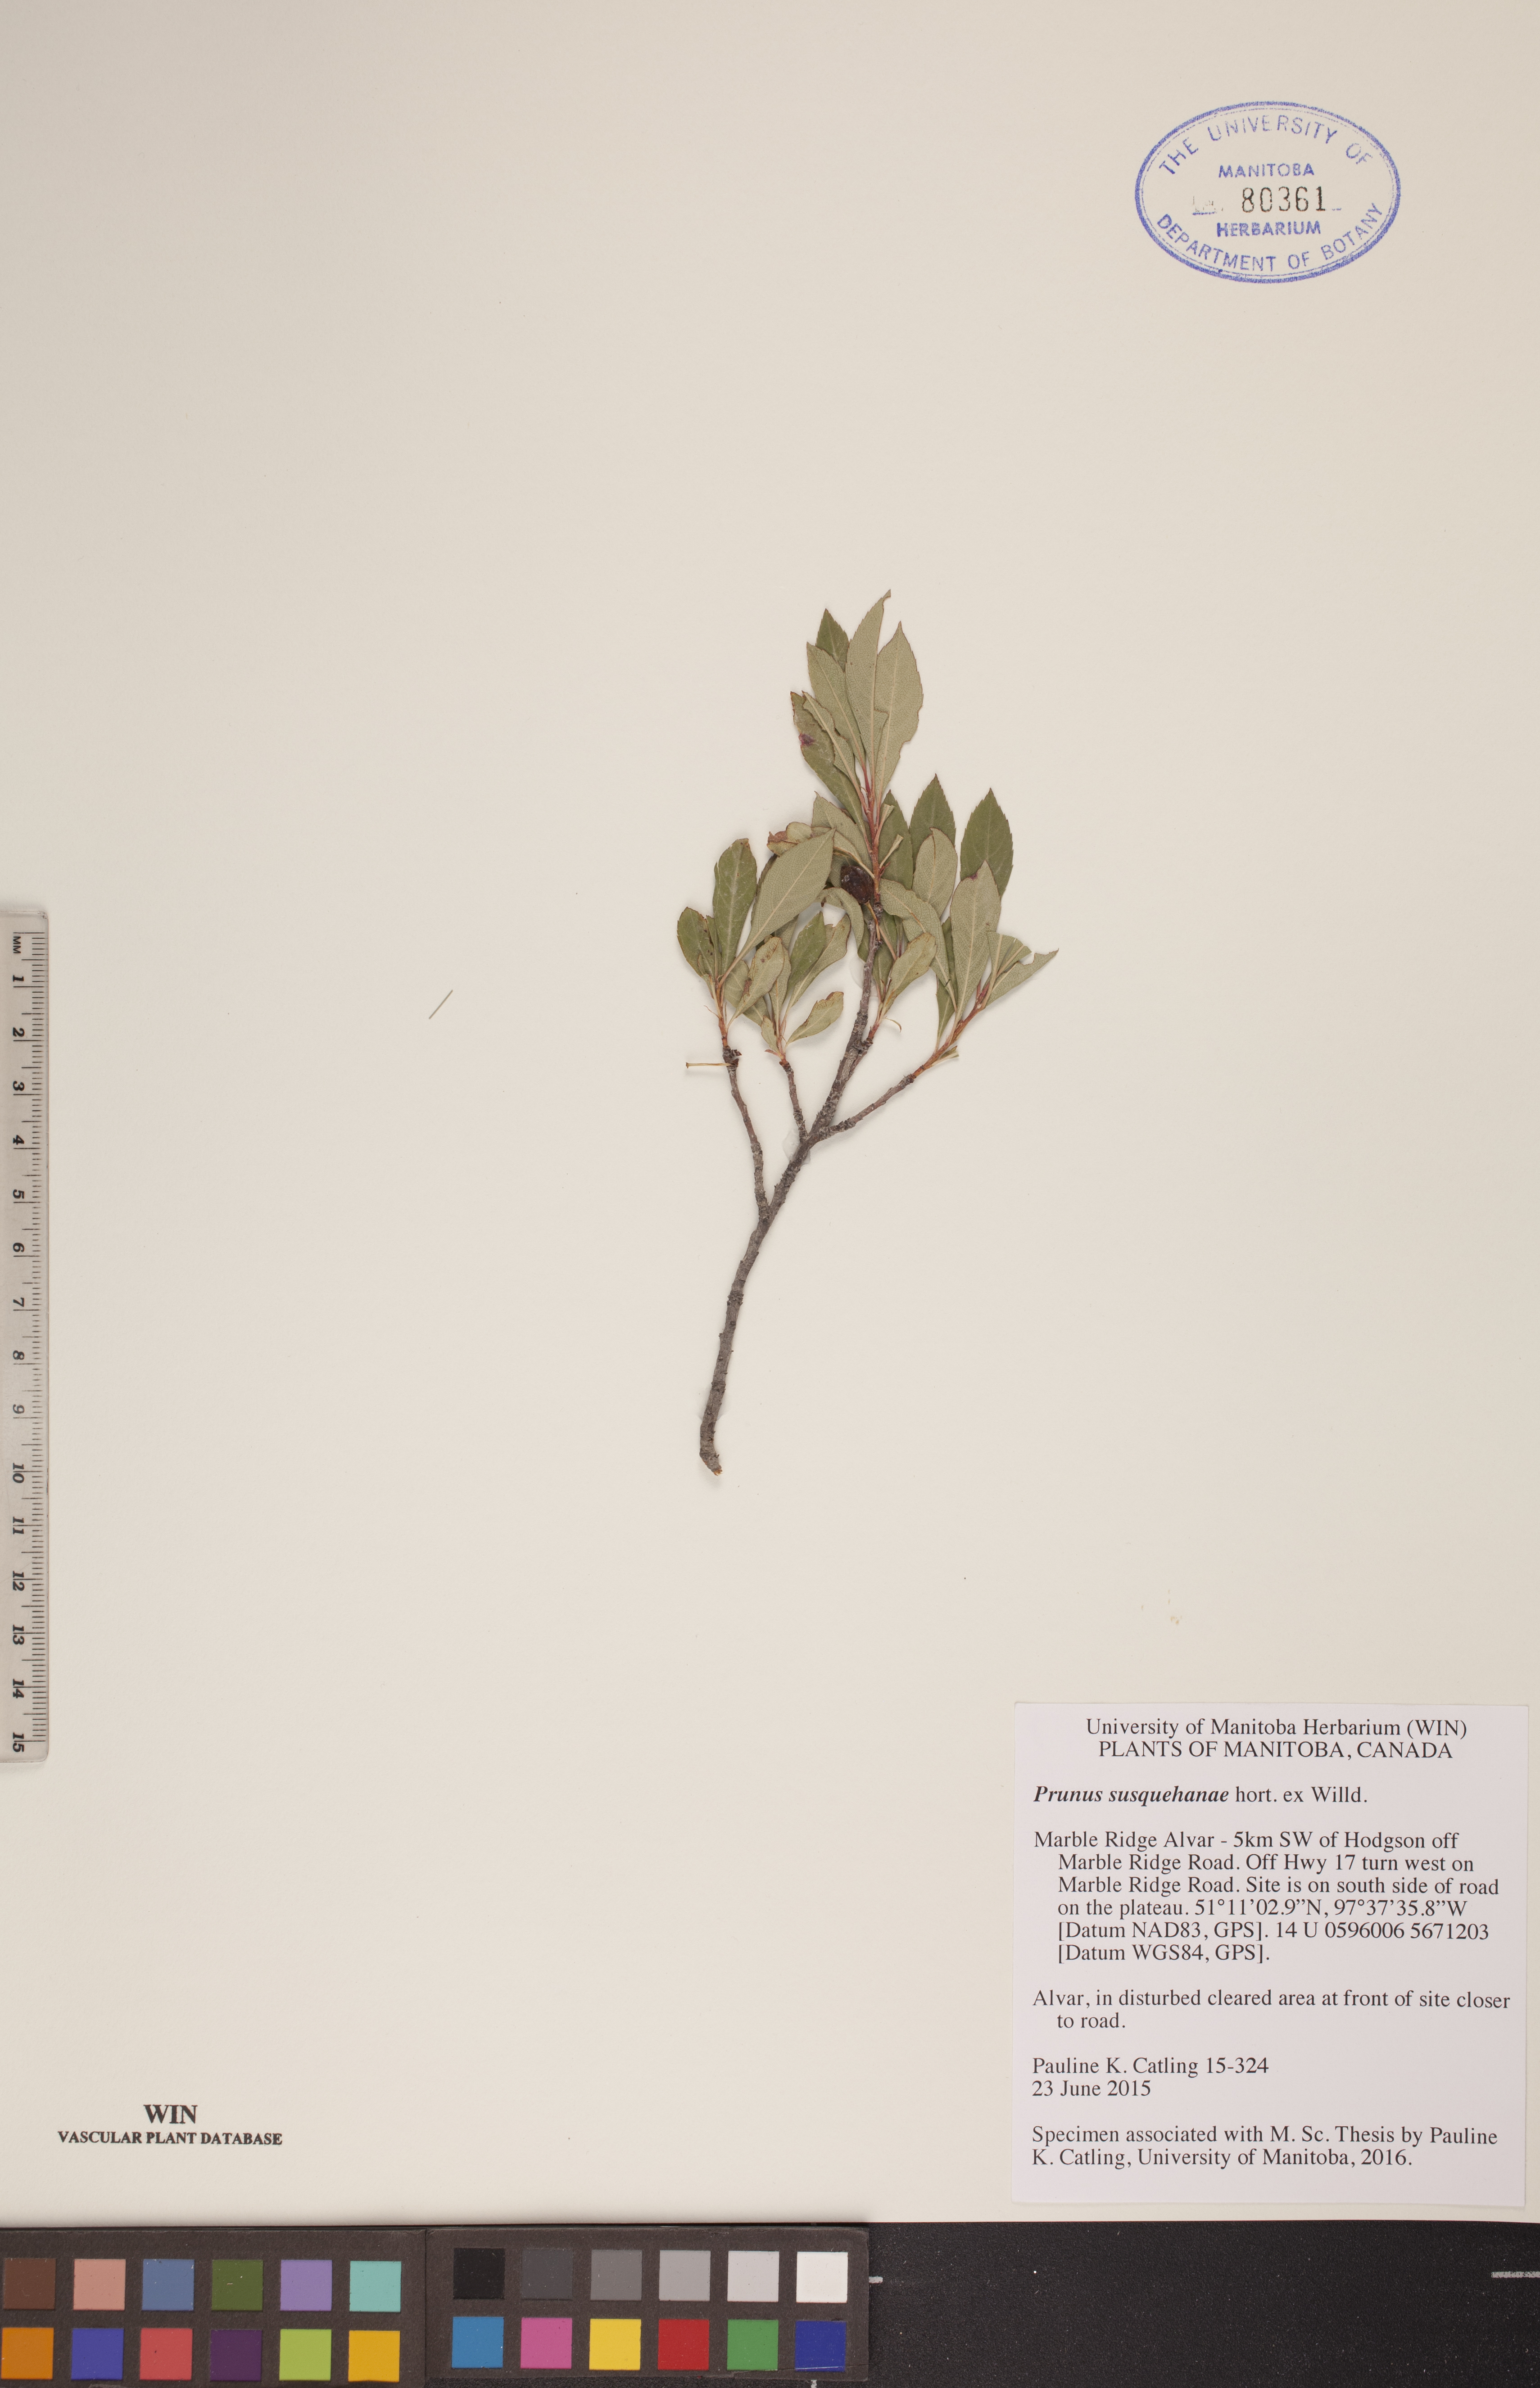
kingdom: Plantae
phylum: Tracheophyta
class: Magnoliopsida
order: Rosales
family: Rosaceae
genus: Prunus
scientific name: Prunus susquehanae
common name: Sesquehana sandcherry
